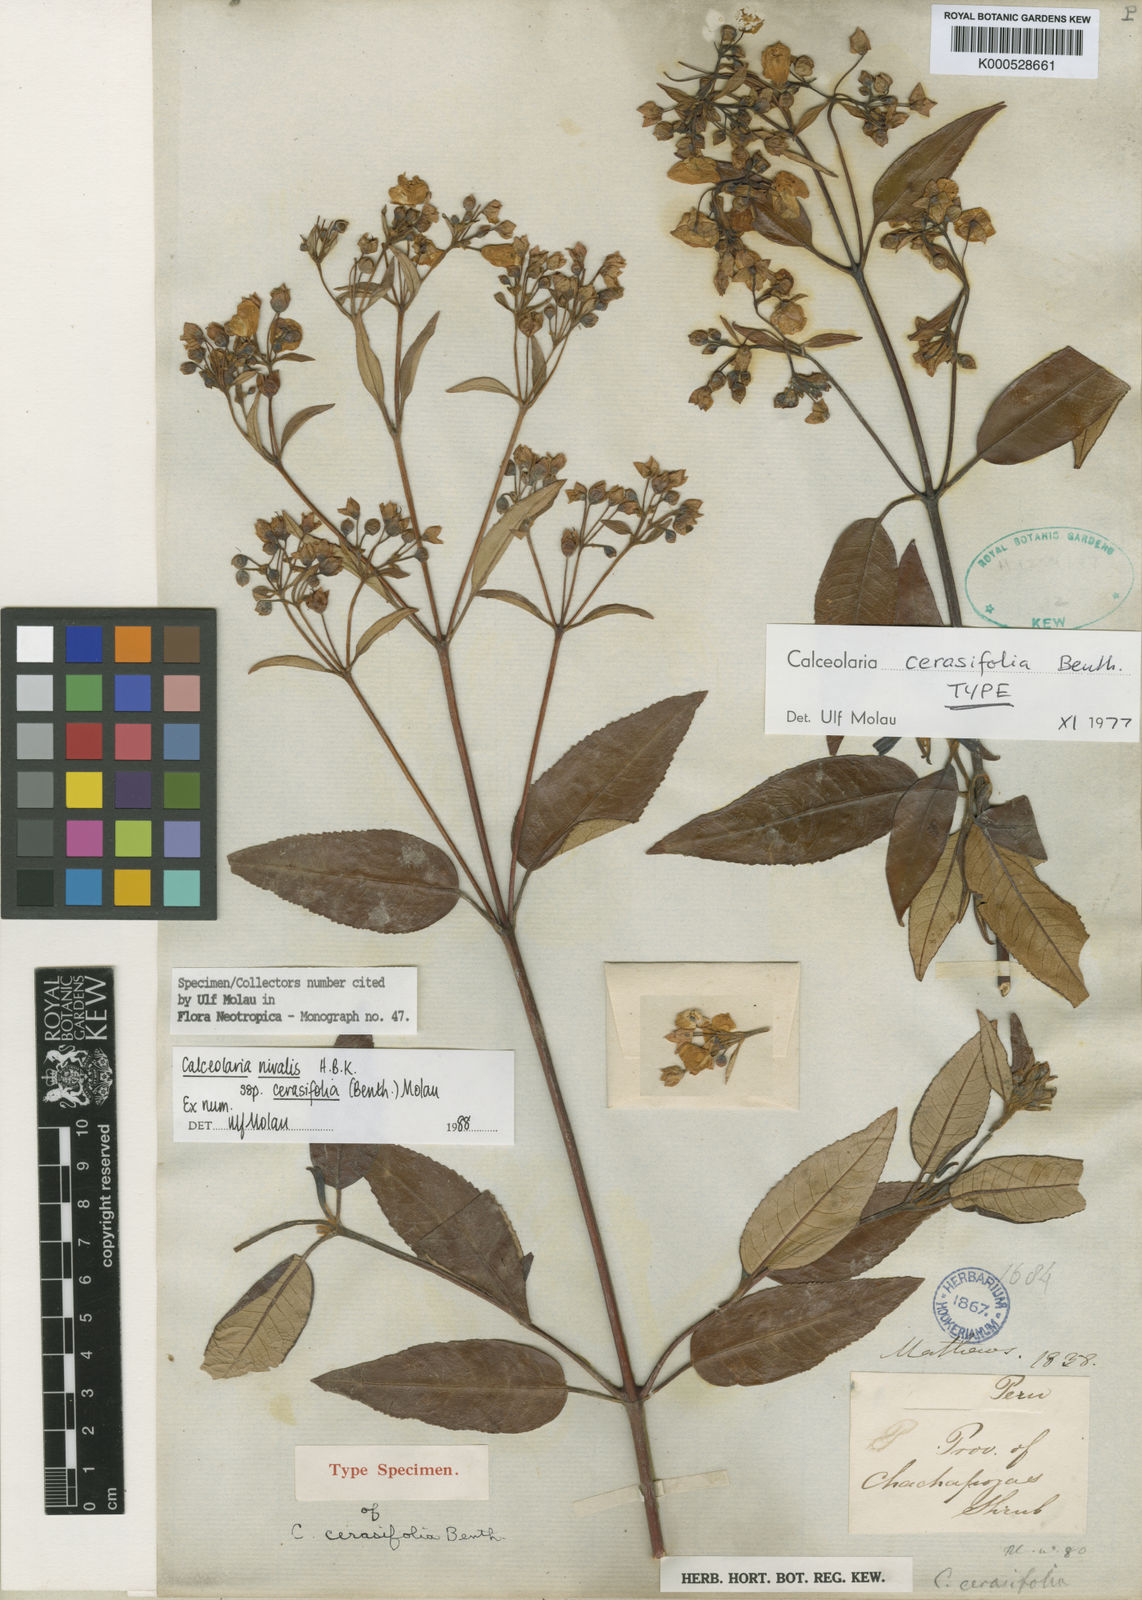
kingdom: Plantae
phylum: Tracheophyta
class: Magnoliopsida
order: Lamiales
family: Calceolariaceae
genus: Calceolaria
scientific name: Calceolaria nivalis
